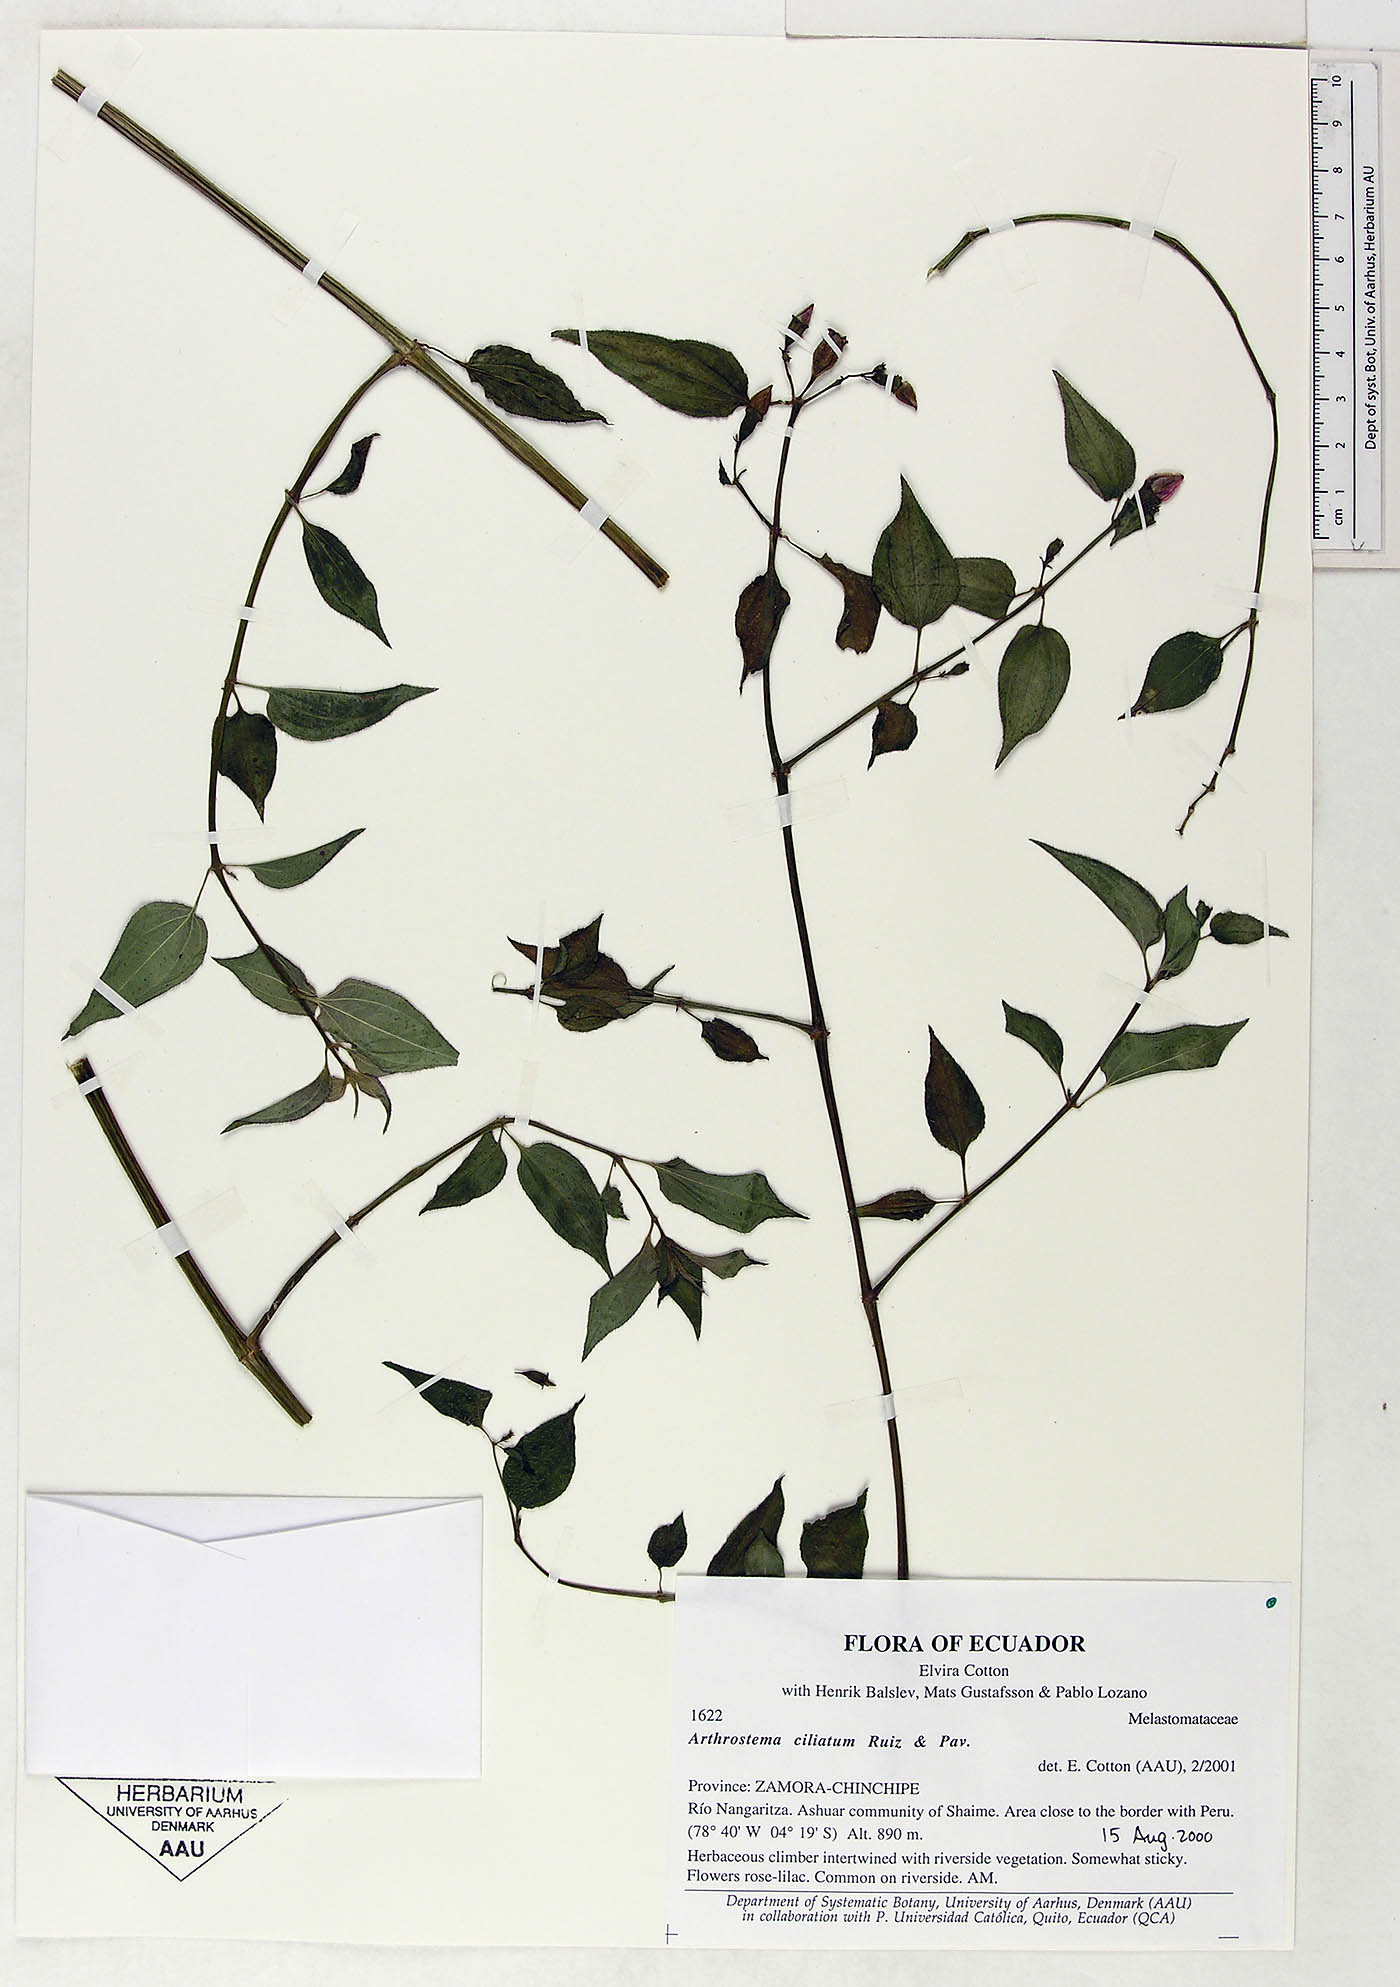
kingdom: Plantae
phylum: Tracheophyta
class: Magnoliopsida
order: Myrtales
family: Melastomataceae
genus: Arthrostemma
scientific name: Arthrostemma ciliatum
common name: Everblooming eavender
